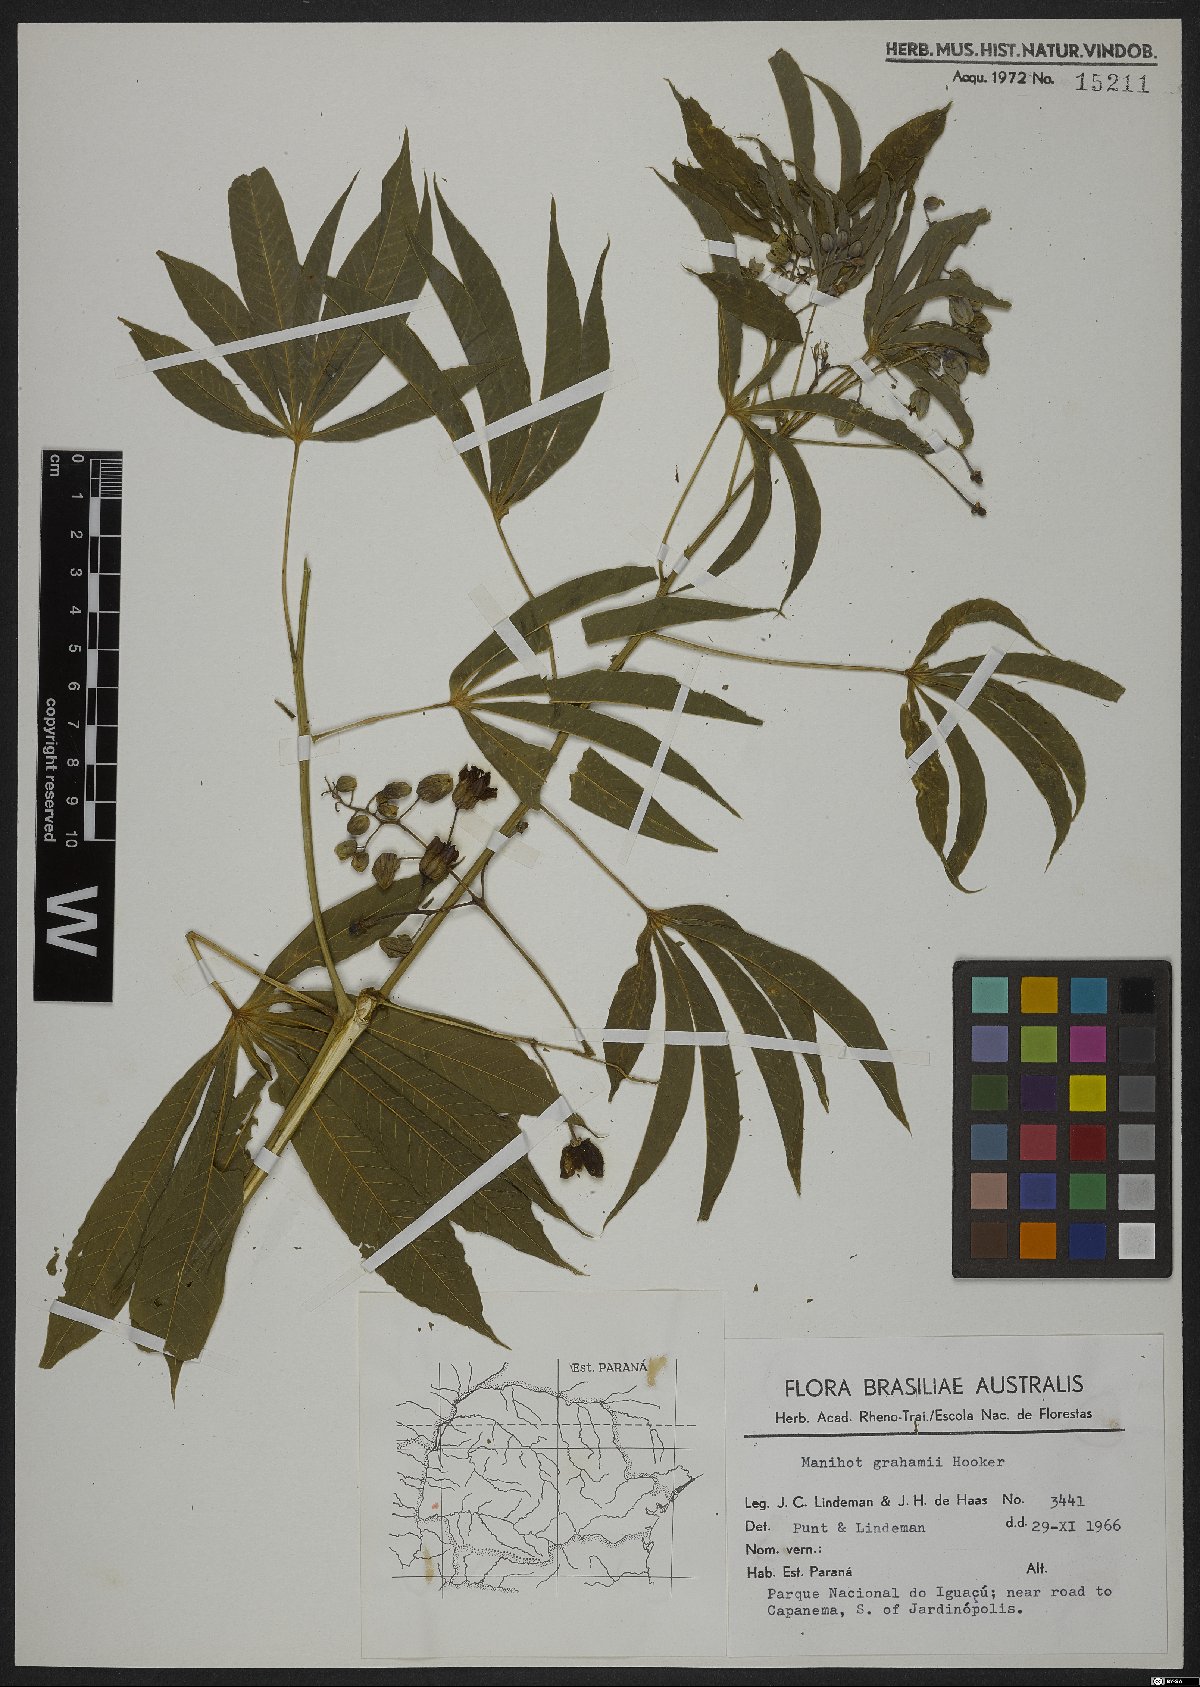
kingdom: Plantae
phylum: Tracheophyta
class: Magnoliopsida
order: Malpighiales
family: Euphorbiaceae
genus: Manihot
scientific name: Manihot grahamii
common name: Graham's manihot
